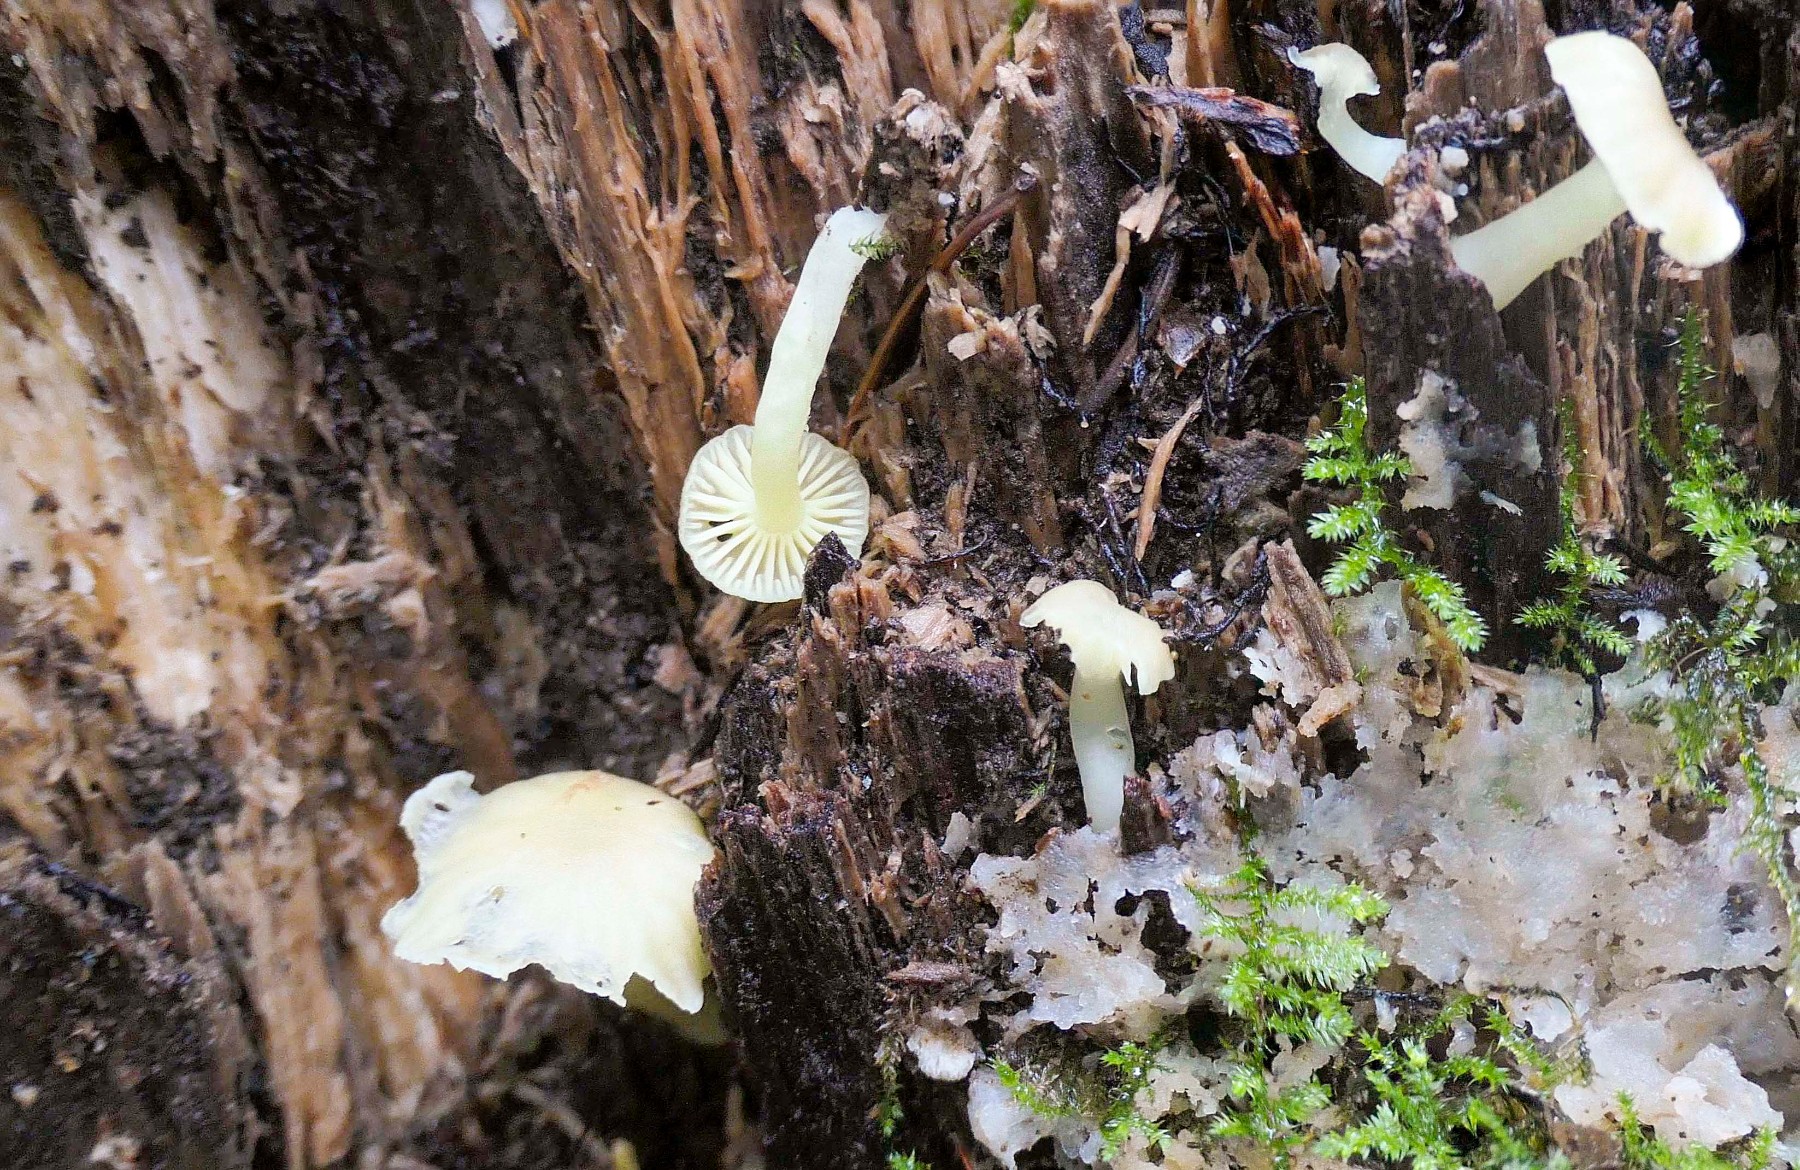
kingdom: Fungi
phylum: Basidiomycota
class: Agaricomycetes
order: Agaricales
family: Hygrophoraceae
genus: Chrysomphalina
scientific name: Chrysomphalina grossula
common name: stød-gyldenblad
